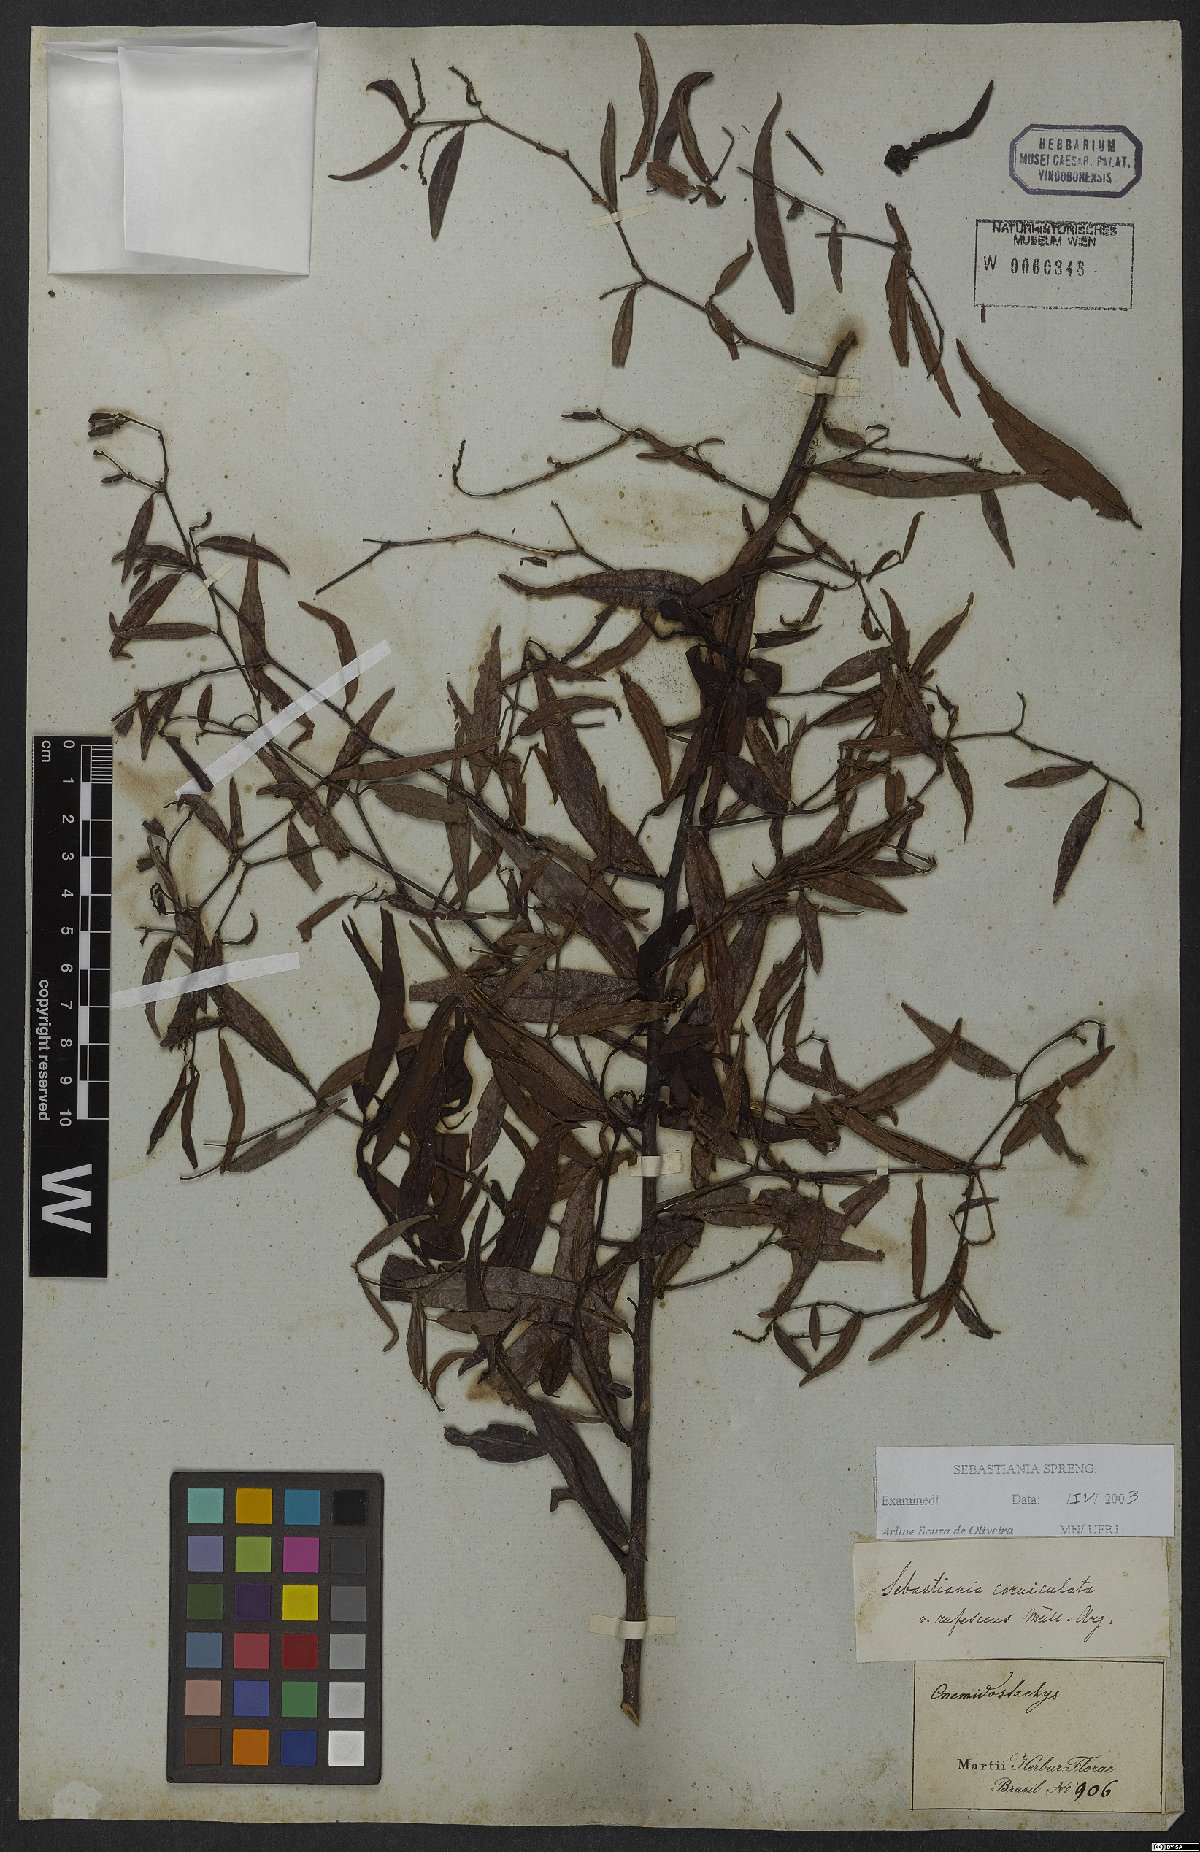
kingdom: Plantae
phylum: Tracheophyta
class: Magnoliopsida
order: Malpighiales
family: Euphorbiaceae
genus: Microstachys
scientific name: Microstachys hispida
